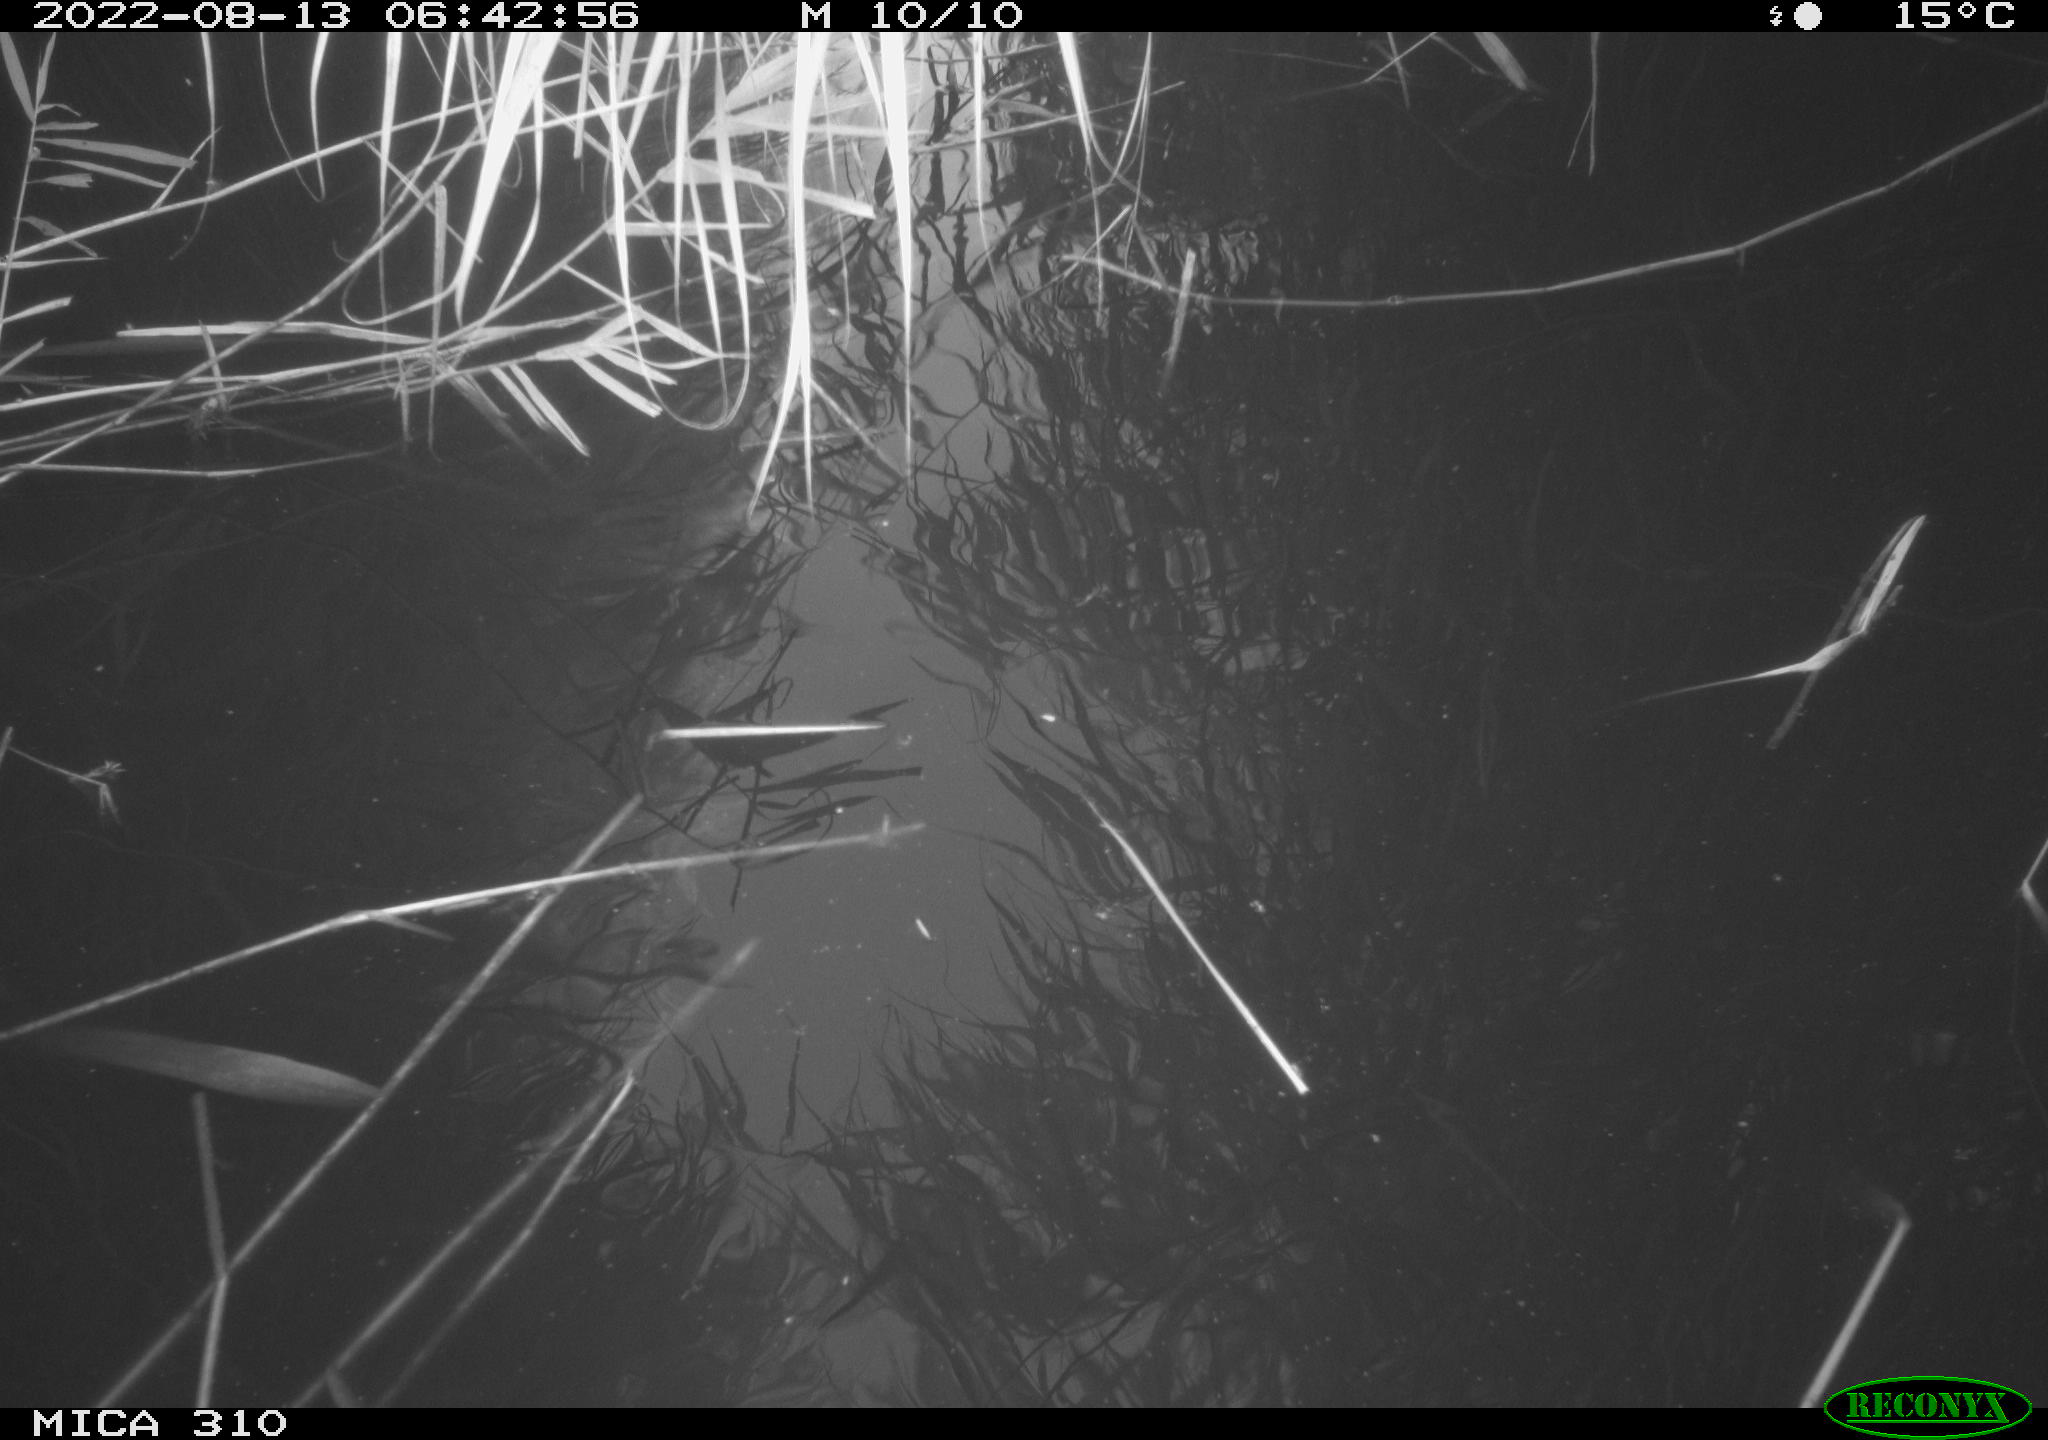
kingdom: Animalia
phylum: Chordata
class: Aves
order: Anseriformes
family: Anatidae
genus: Anas
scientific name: Anas platyrhynchos
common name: Mallard
